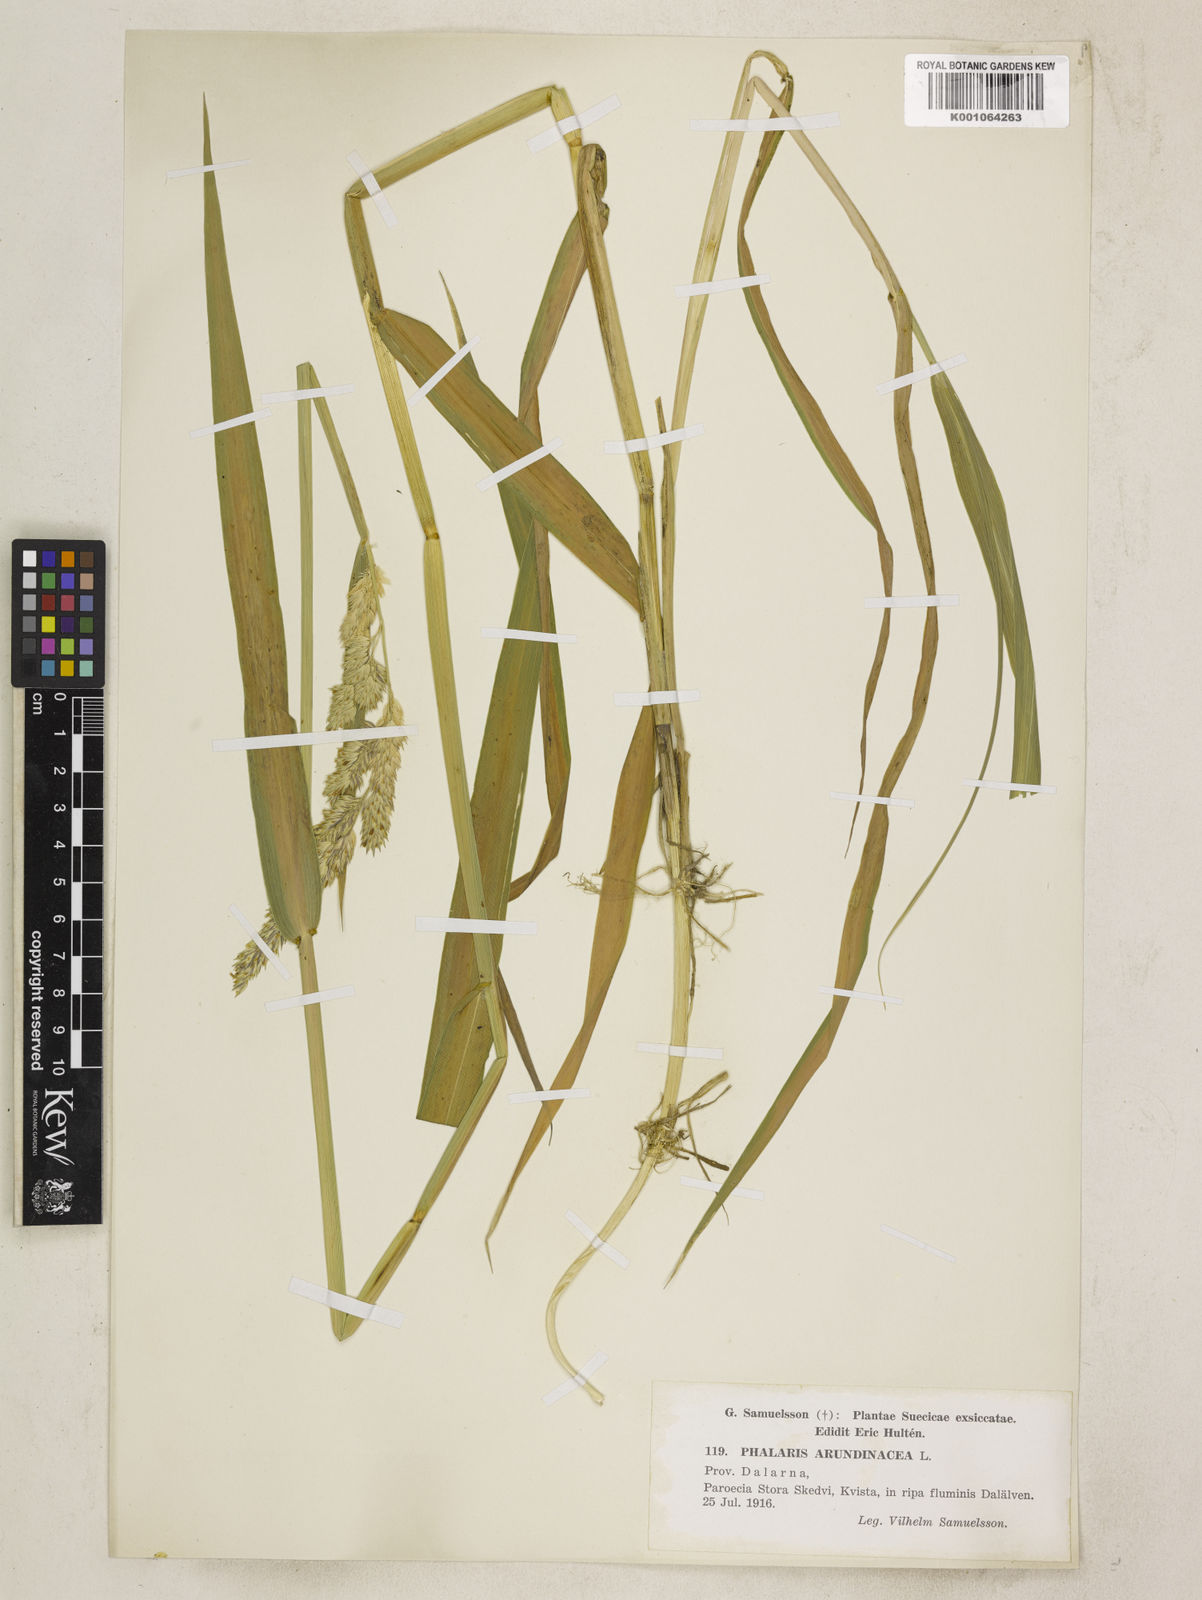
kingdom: Plantae
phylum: Tracheophyta
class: Liliopsida
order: Poales
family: Poaceae
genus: Phalaris
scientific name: Phalaris arundinacea
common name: Reed canary-grass
